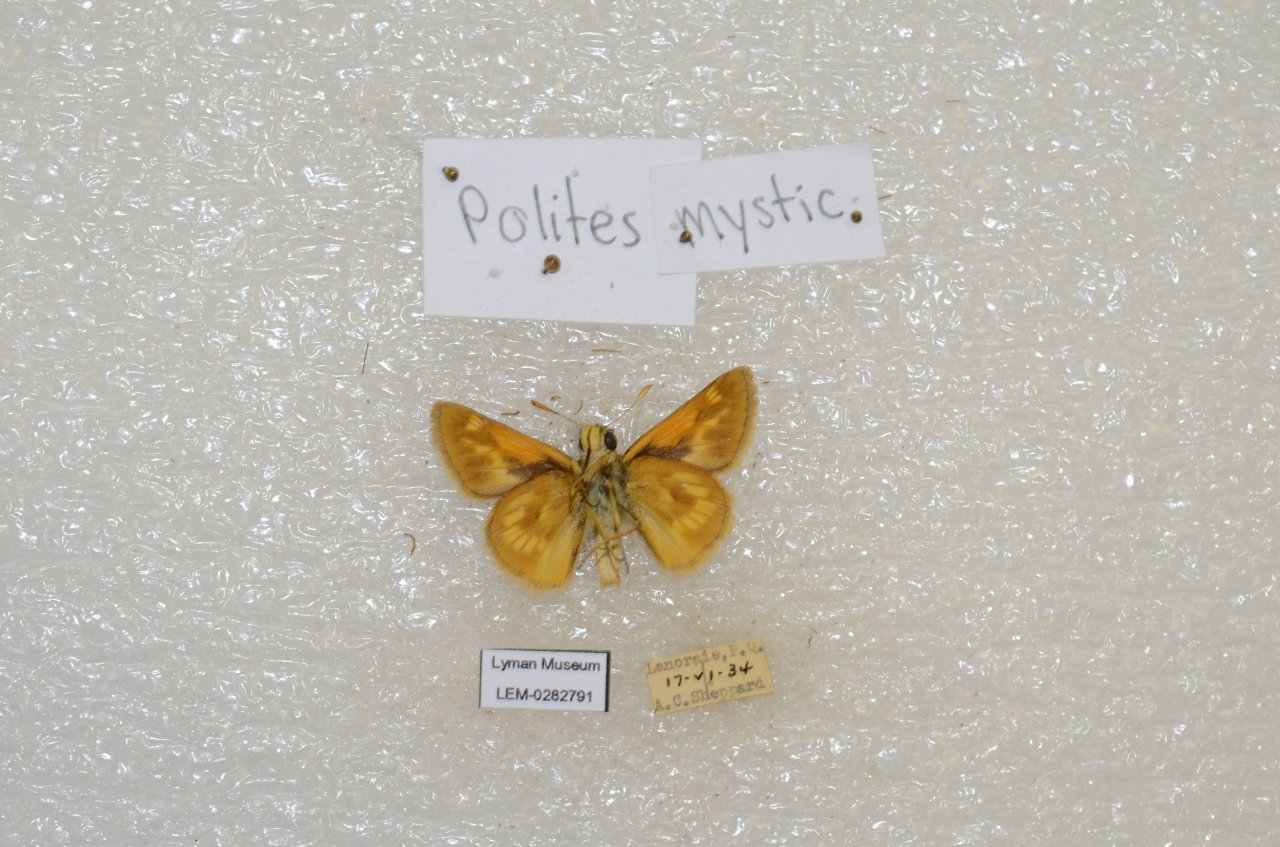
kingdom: Animalia
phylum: Arthropoda
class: Insecta
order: Lepidoptera
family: Hesperiidae
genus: Polites
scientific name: Polites
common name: Long Dash Skipper
